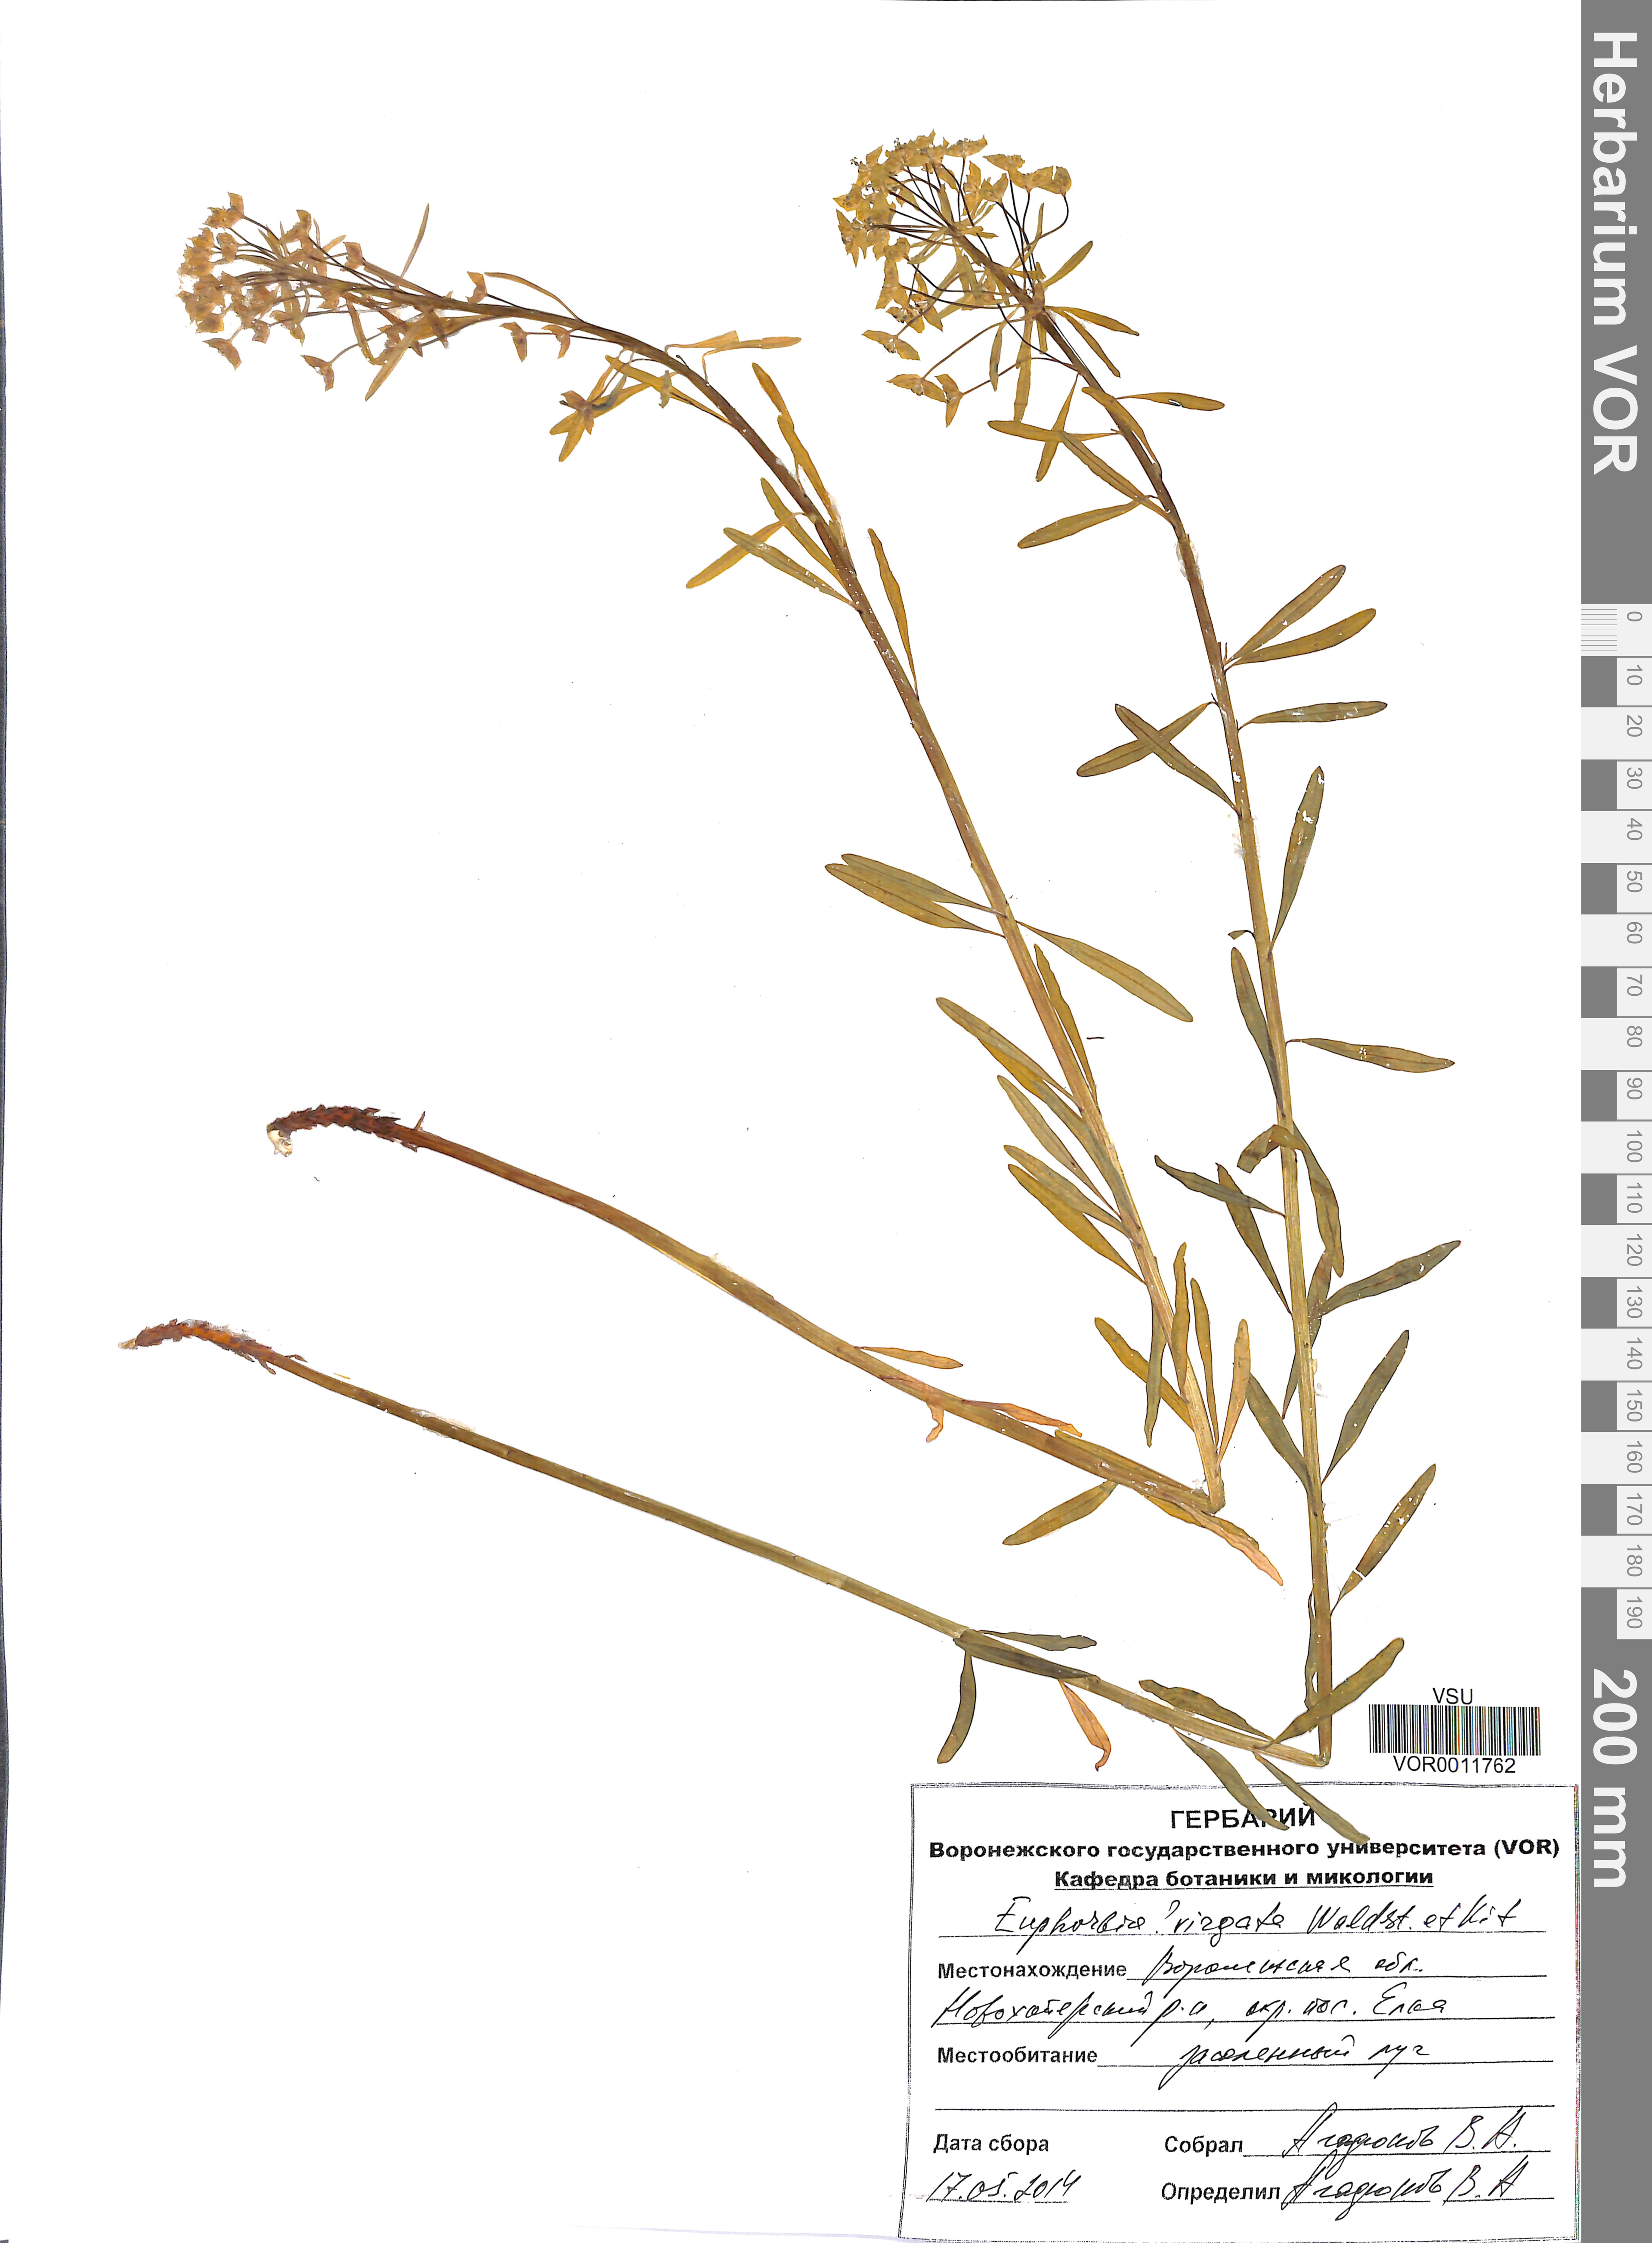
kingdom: Plantae
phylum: Tracheophyta
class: Magnoliopsida
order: Malpighiales
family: Euphorbiaceae
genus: Euphorbia
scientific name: Euphorbia virgata
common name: Leafy spurge
